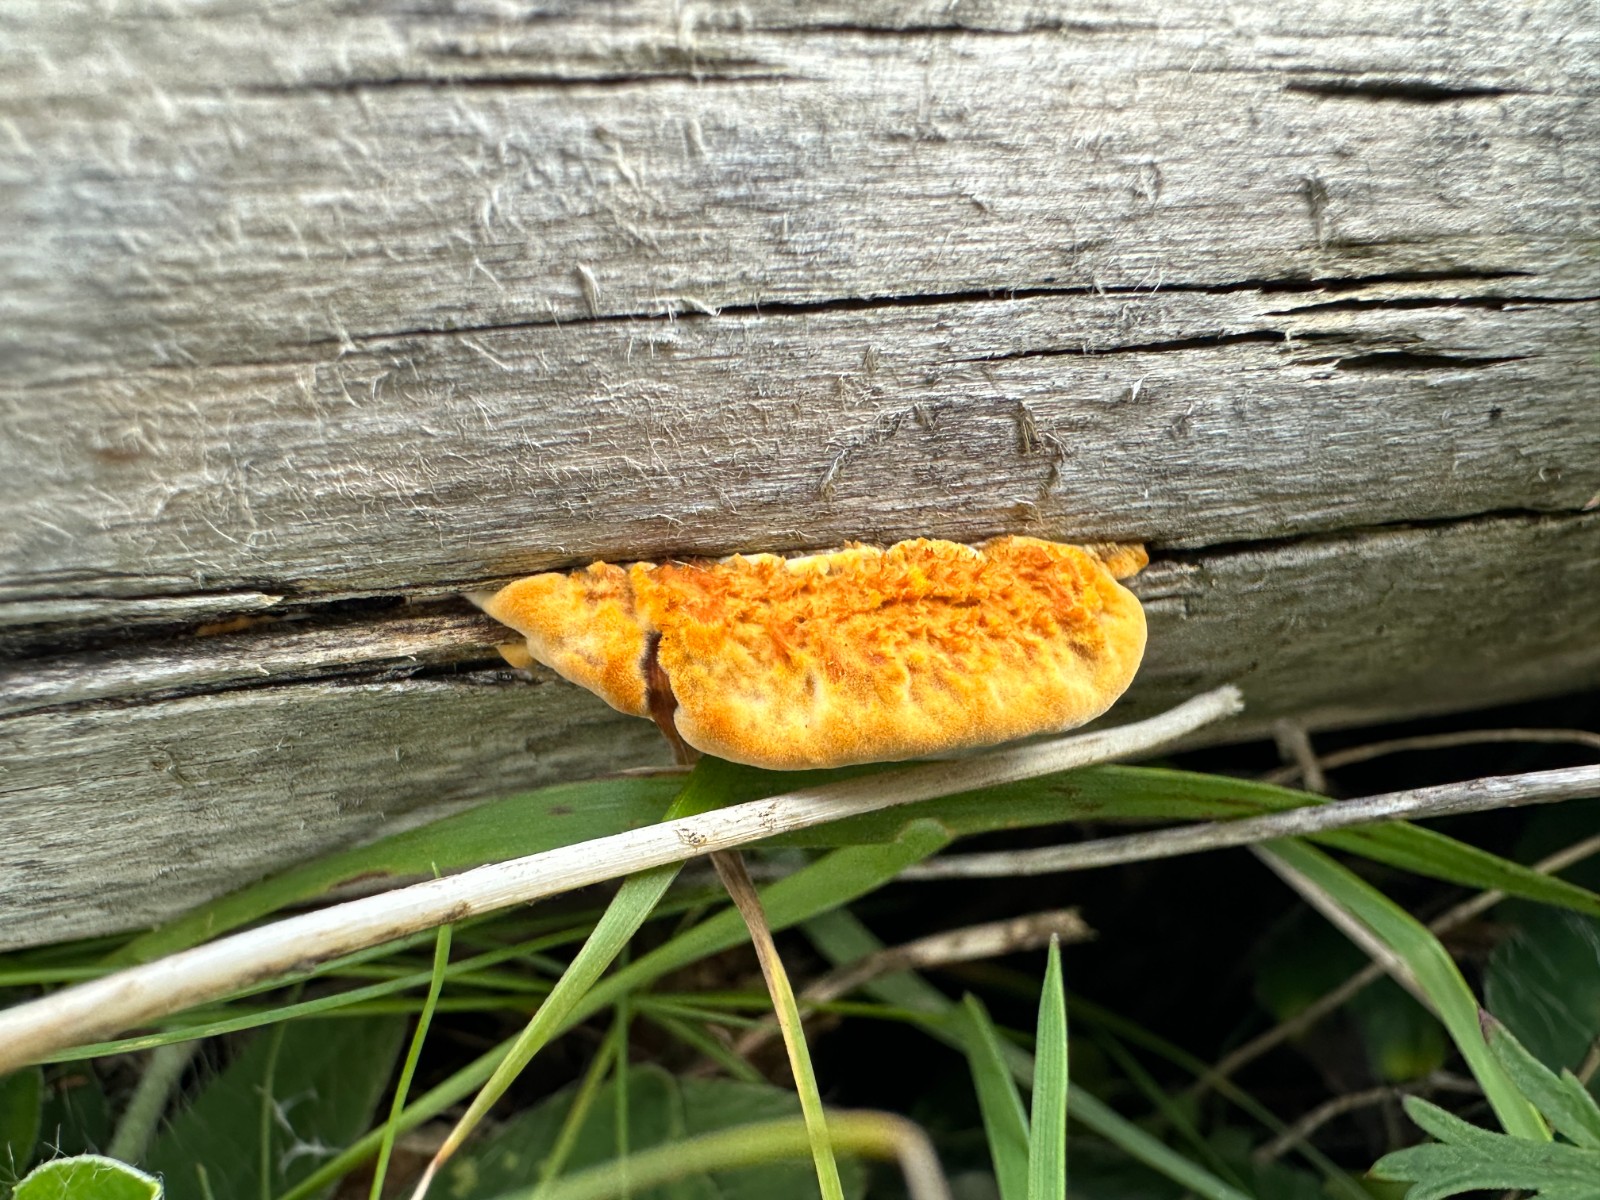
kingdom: Fungi
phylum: Basidiomycota
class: Agaricomycetes
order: Gloeophyllales
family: Gloeophyllaceae
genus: Gloeophyllum
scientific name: Gloeophyllum sepiarium
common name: fyrre-korkhat
